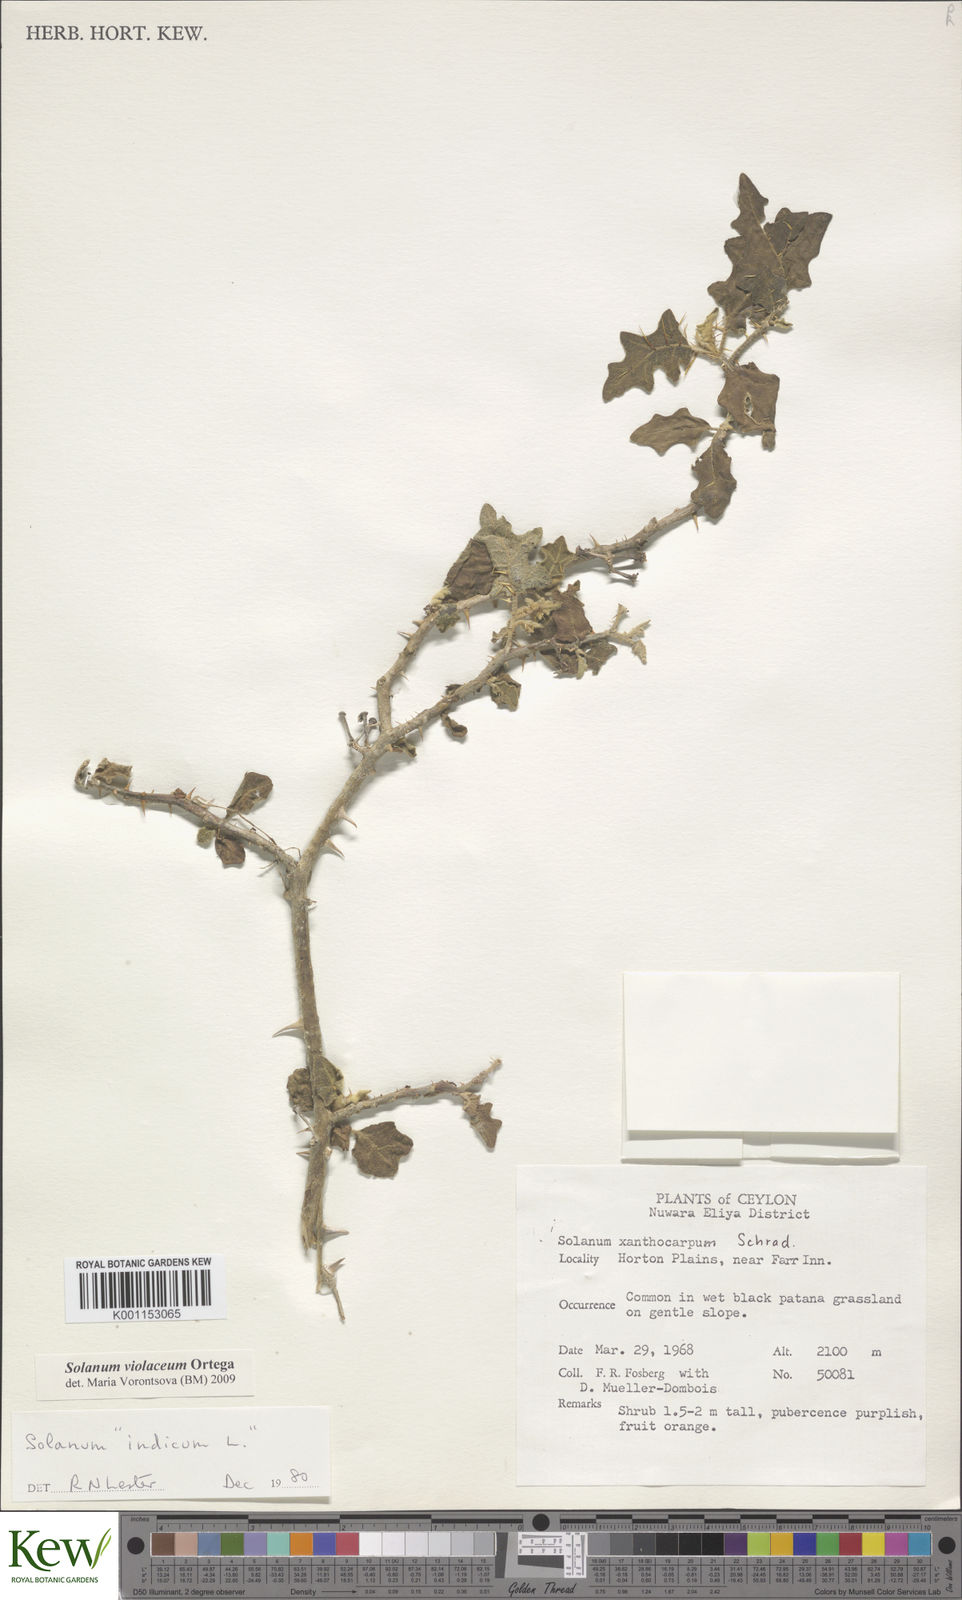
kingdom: Plantae
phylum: Tracheophyta
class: Magnoliopsida
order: Solanales
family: Solanaceae
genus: Solanum
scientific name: Solanum violaceum
